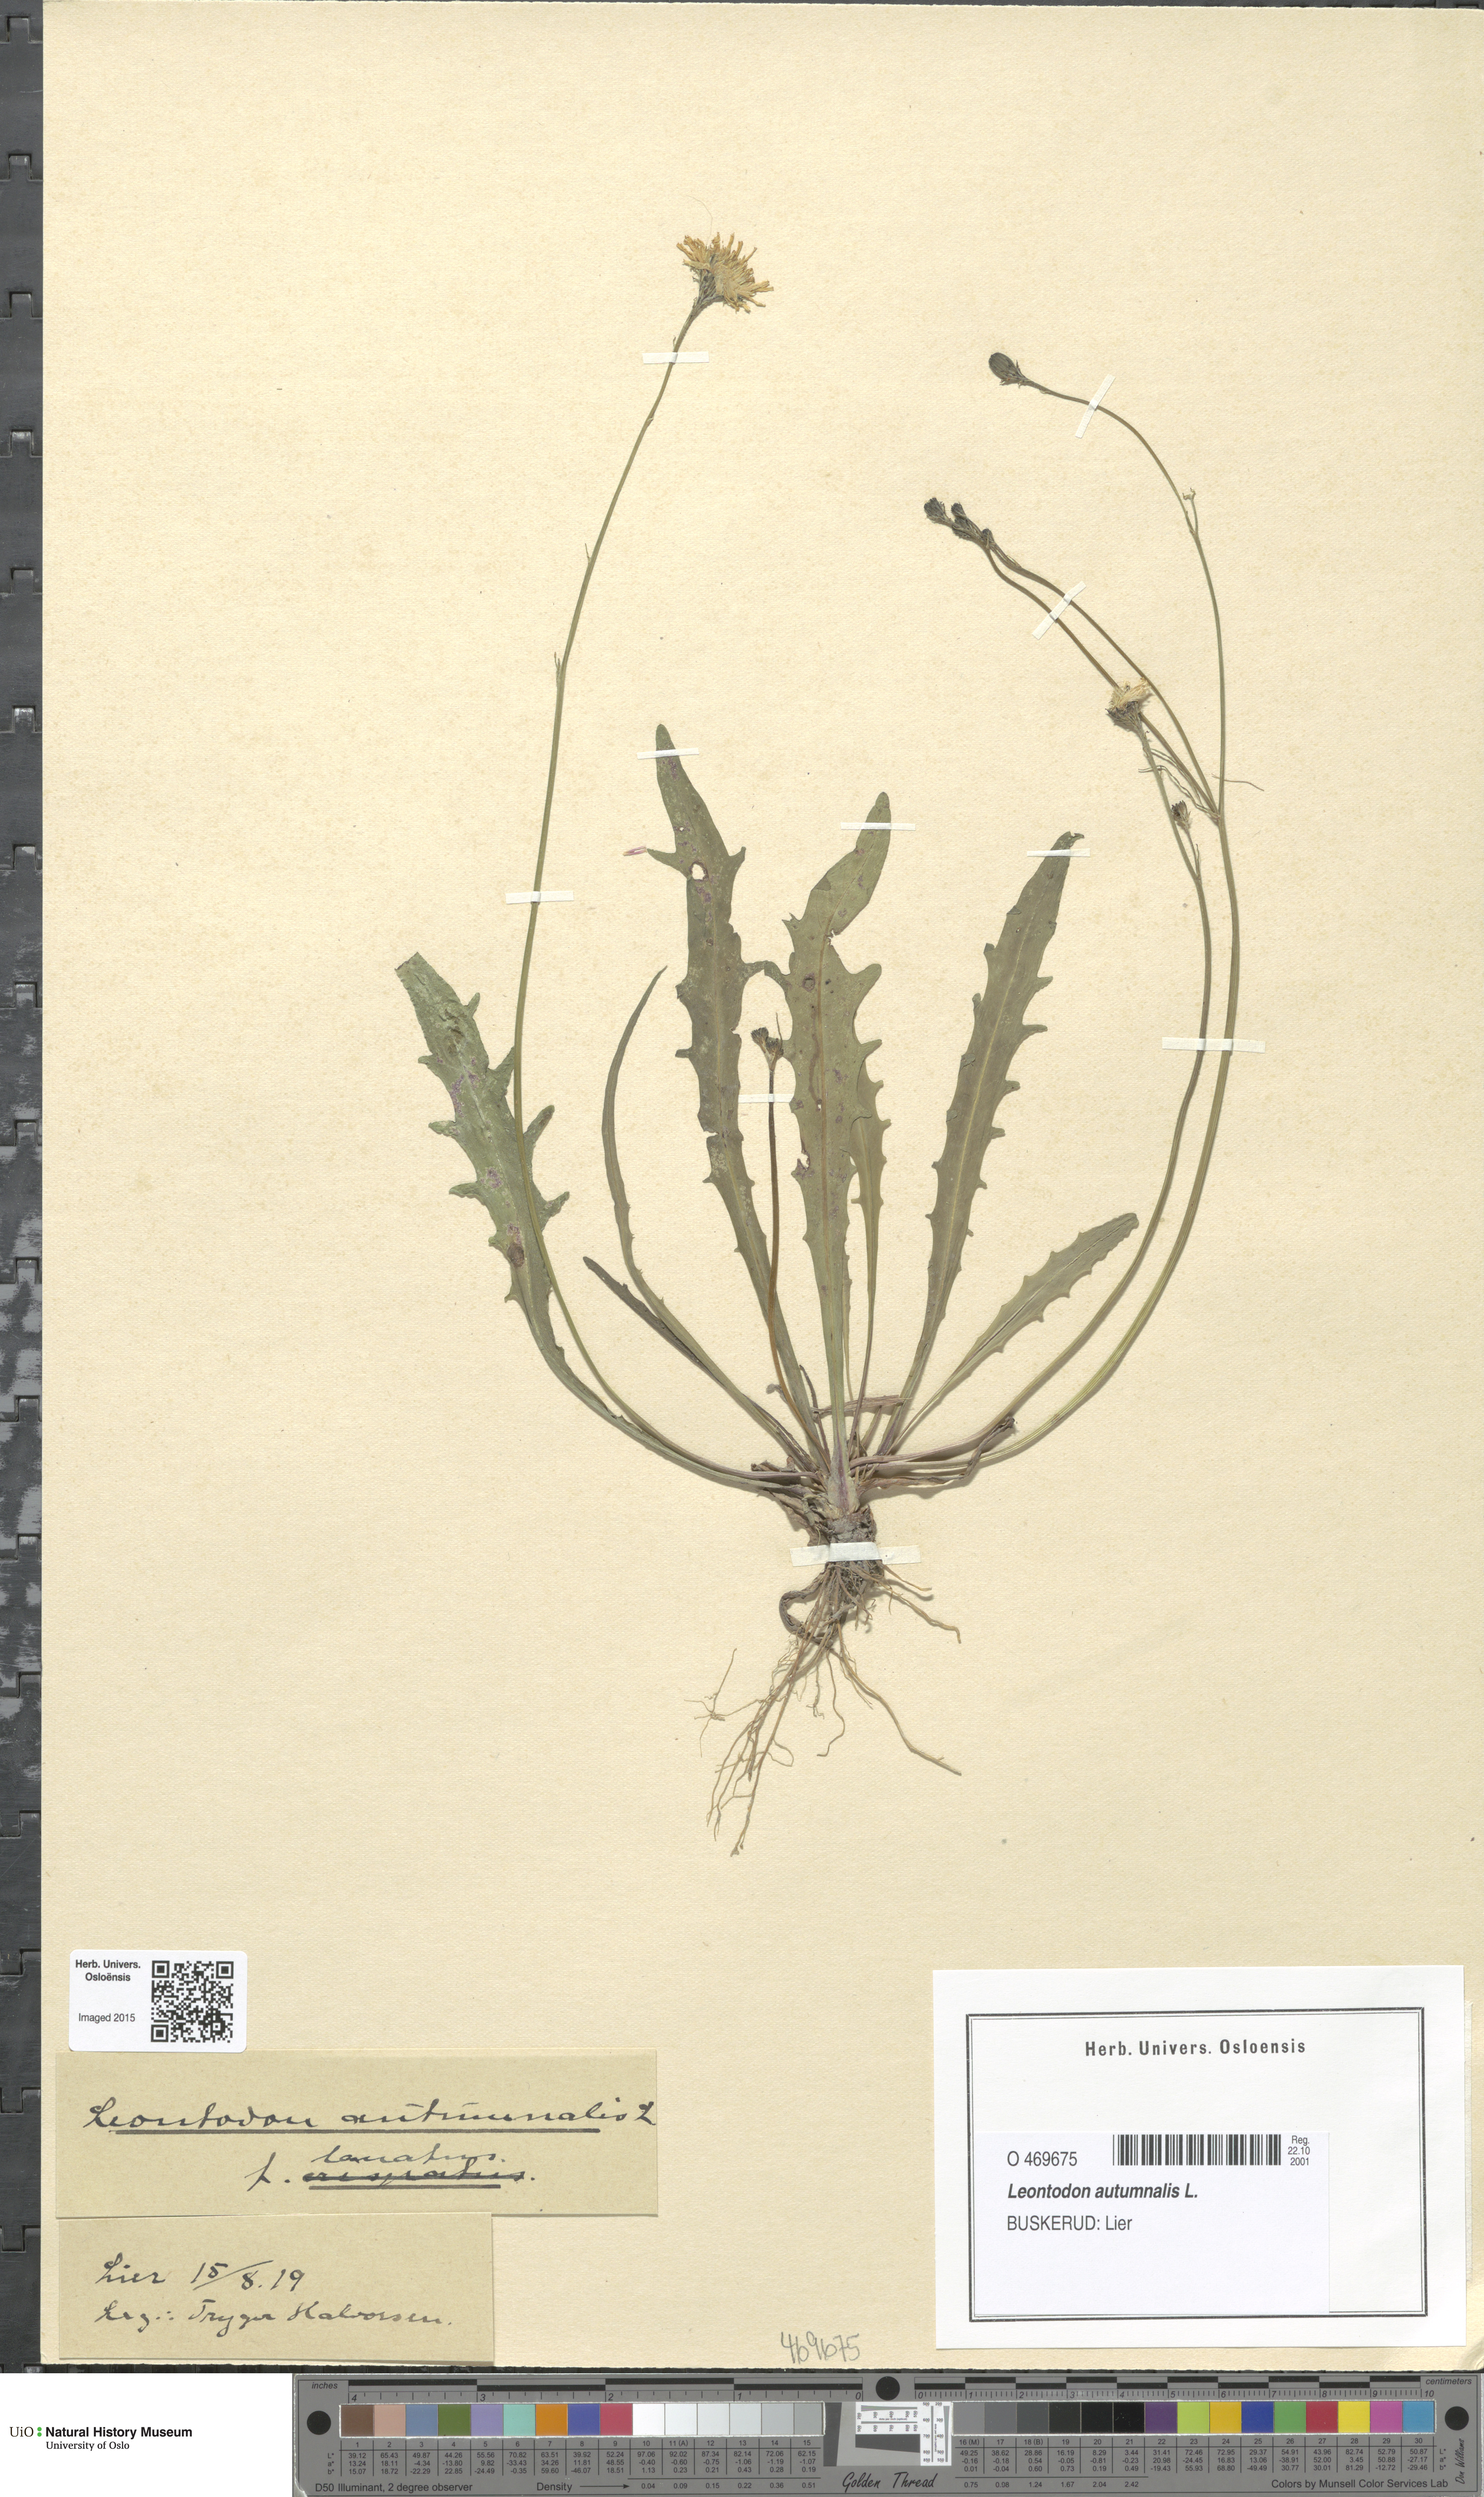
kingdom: Plantae
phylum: Tracheophyta
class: Magnoliopsida
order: Asterales
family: Asteraceae
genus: Scorzoneroides
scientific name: Scorzoneroides autumnalis
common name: Autumn hawkbit
